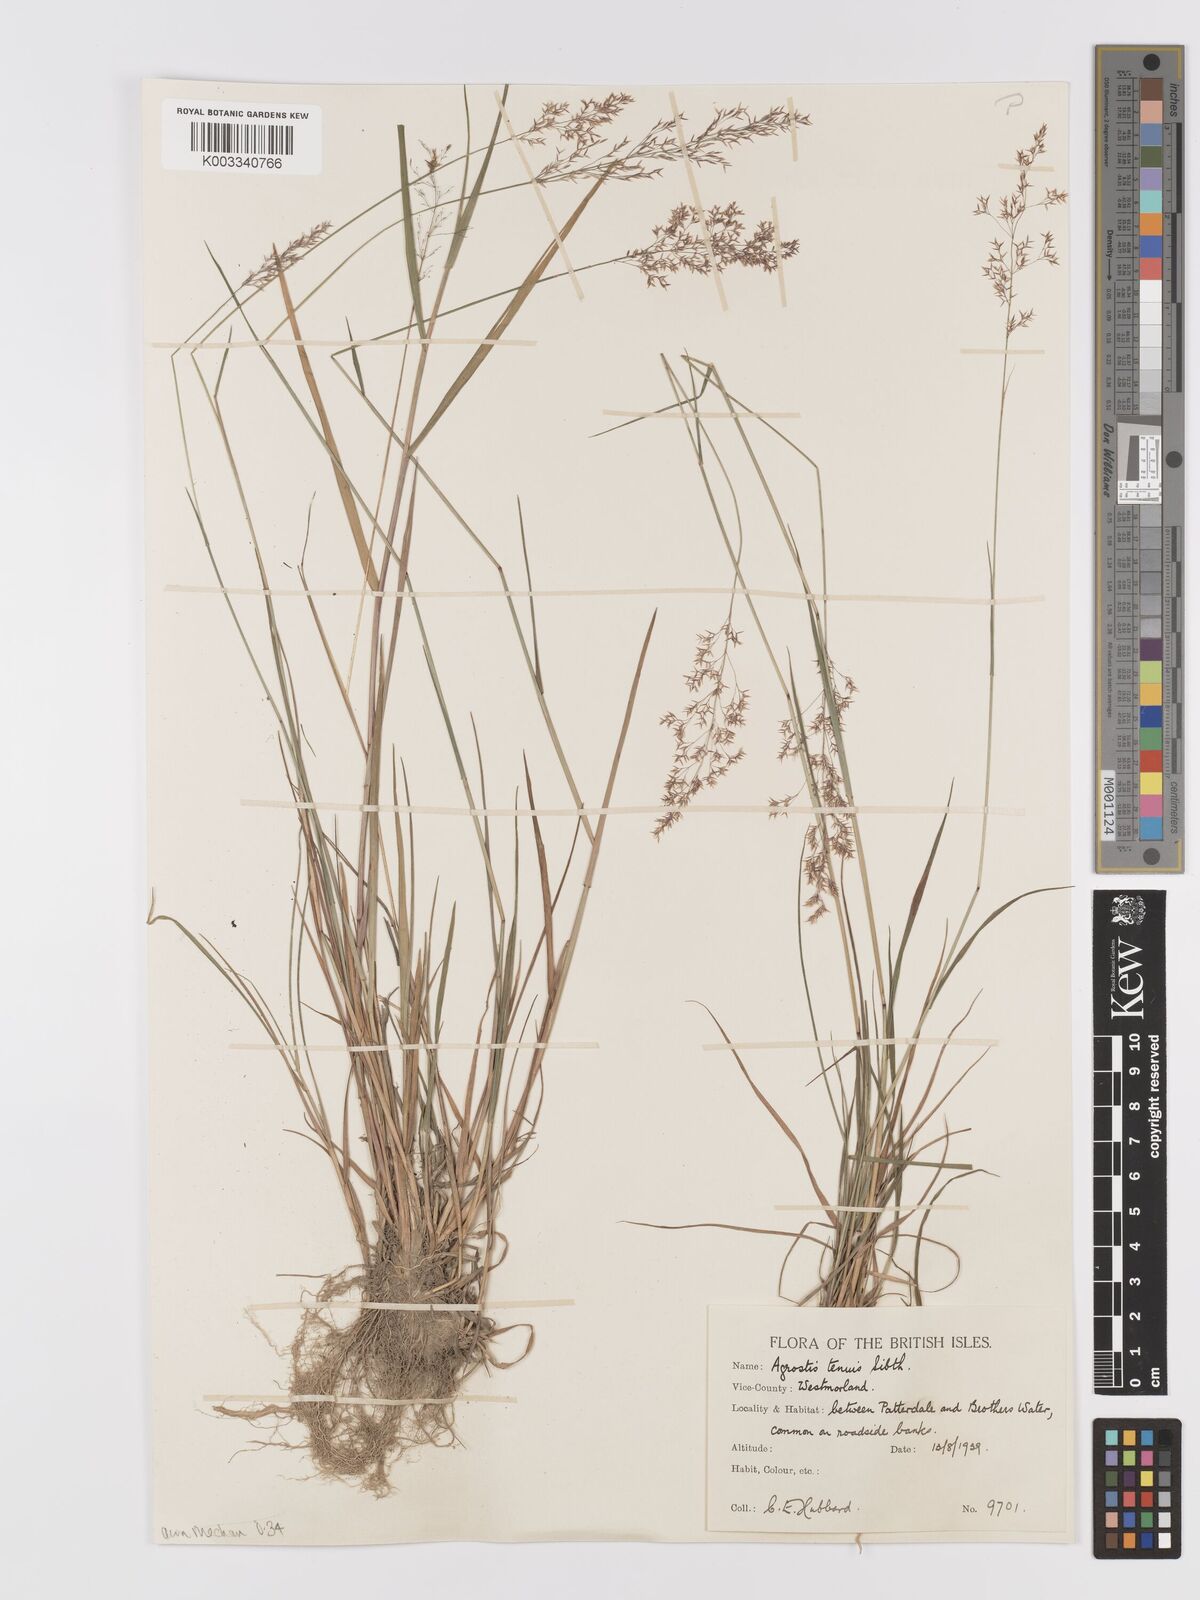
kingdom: Plantae
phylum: Tracheophyta
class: Liliopsida
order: Poales
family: Poaceae
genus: Agrostis
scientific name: Agrostis capillaris
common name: Colonial bentgrass
